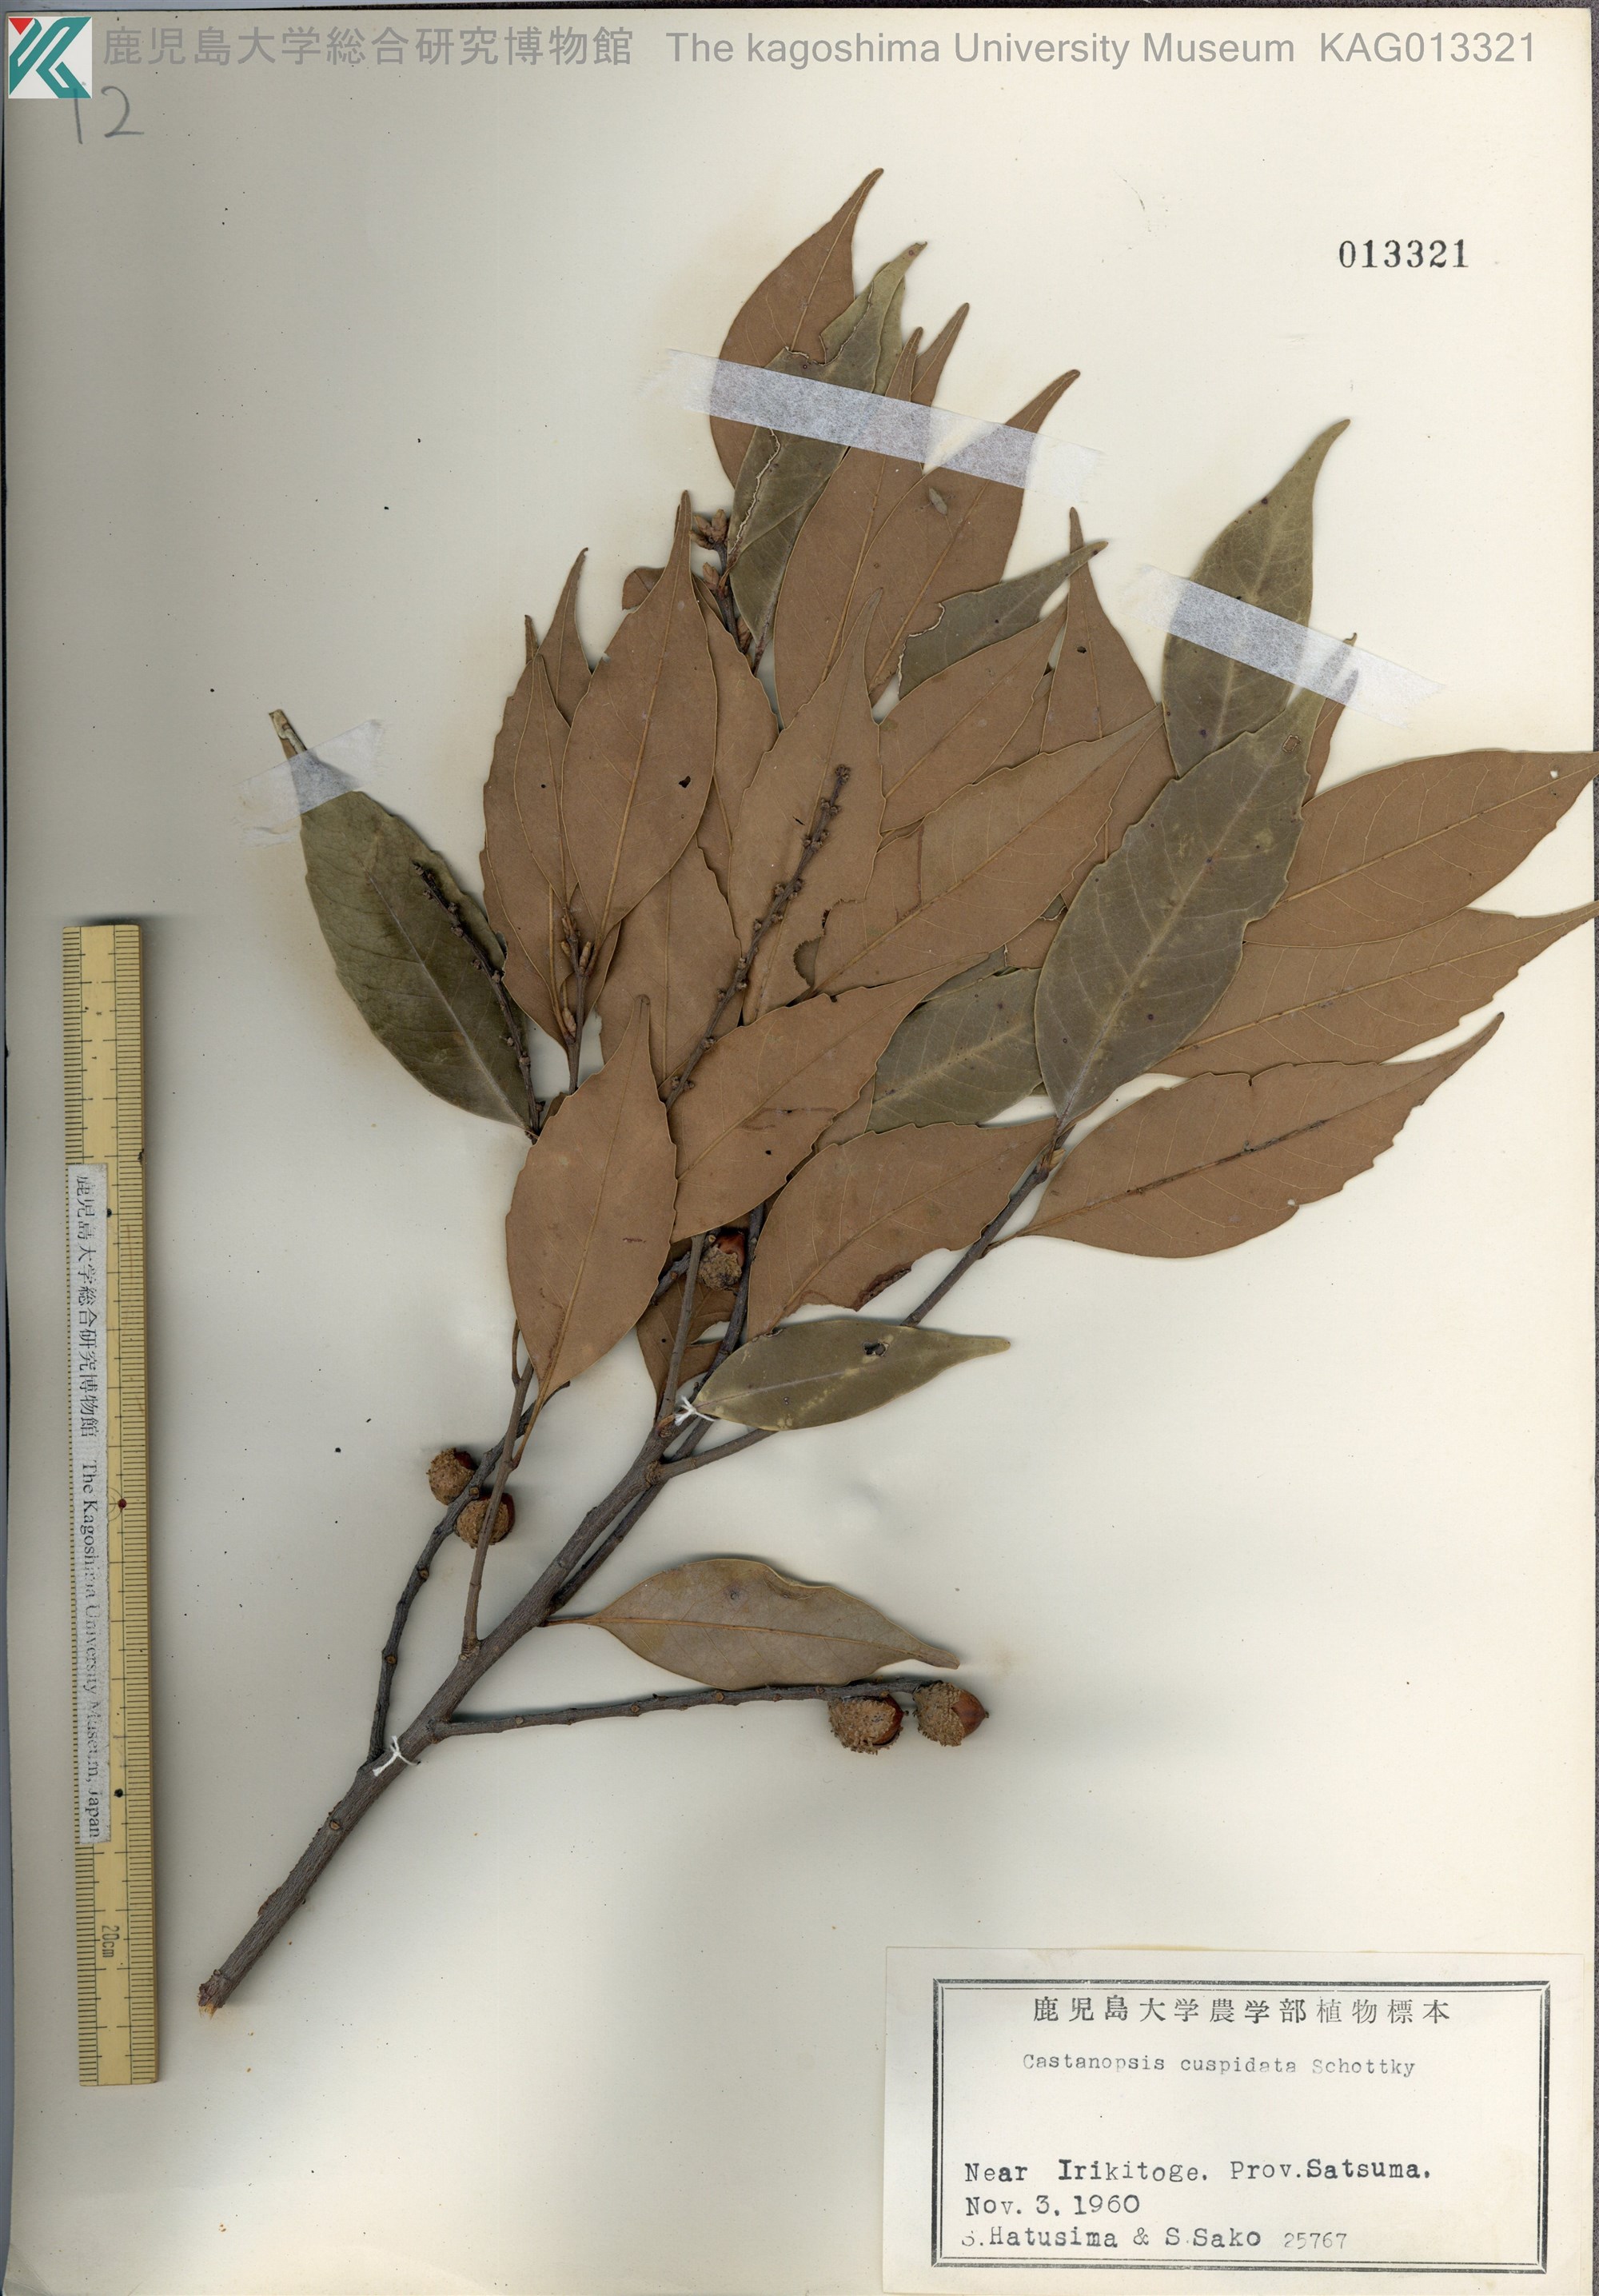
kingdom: Plantae
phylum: Tracheophyta
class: Magnoliopsida
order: Fagales
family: Fagaceae
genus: Castanopsis
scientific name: Castanopsis cuspidata
